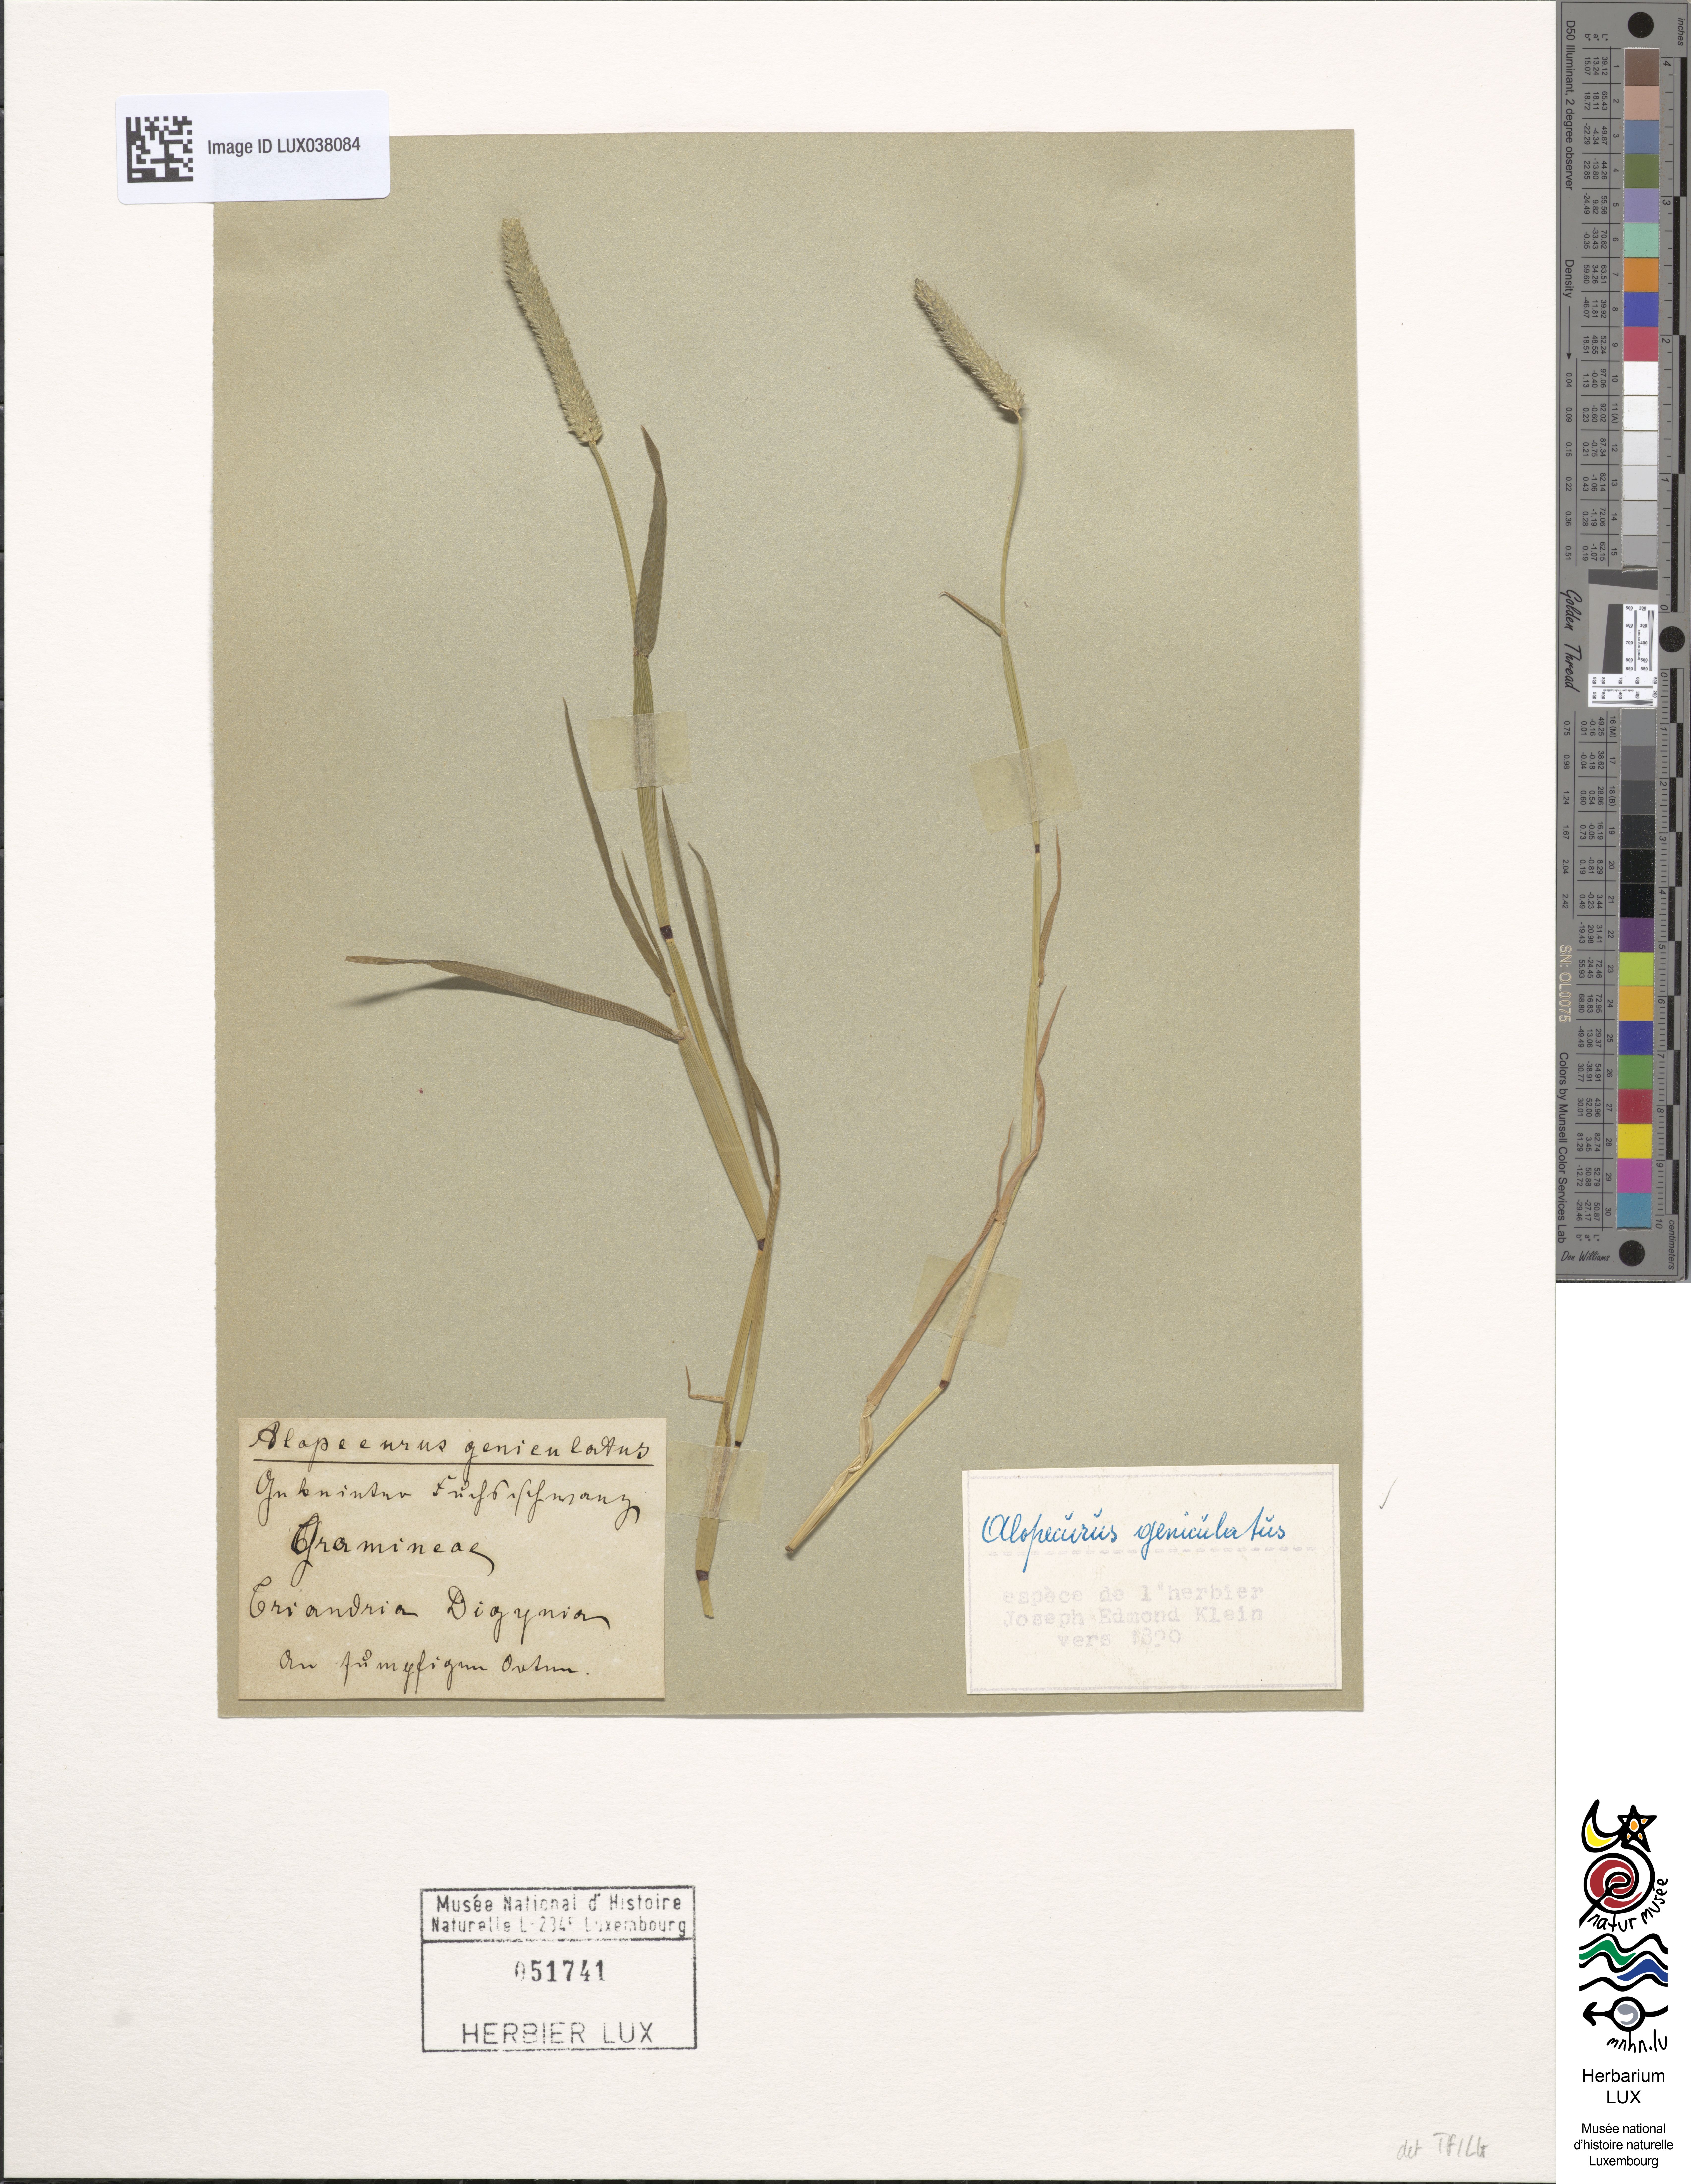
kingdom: Plantae
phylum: Tracheophyta
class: Liliopsida
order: Poales
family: Poaceae
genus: Alopecurus
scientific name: Alopecurus geniculatus
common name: Water foxtail
